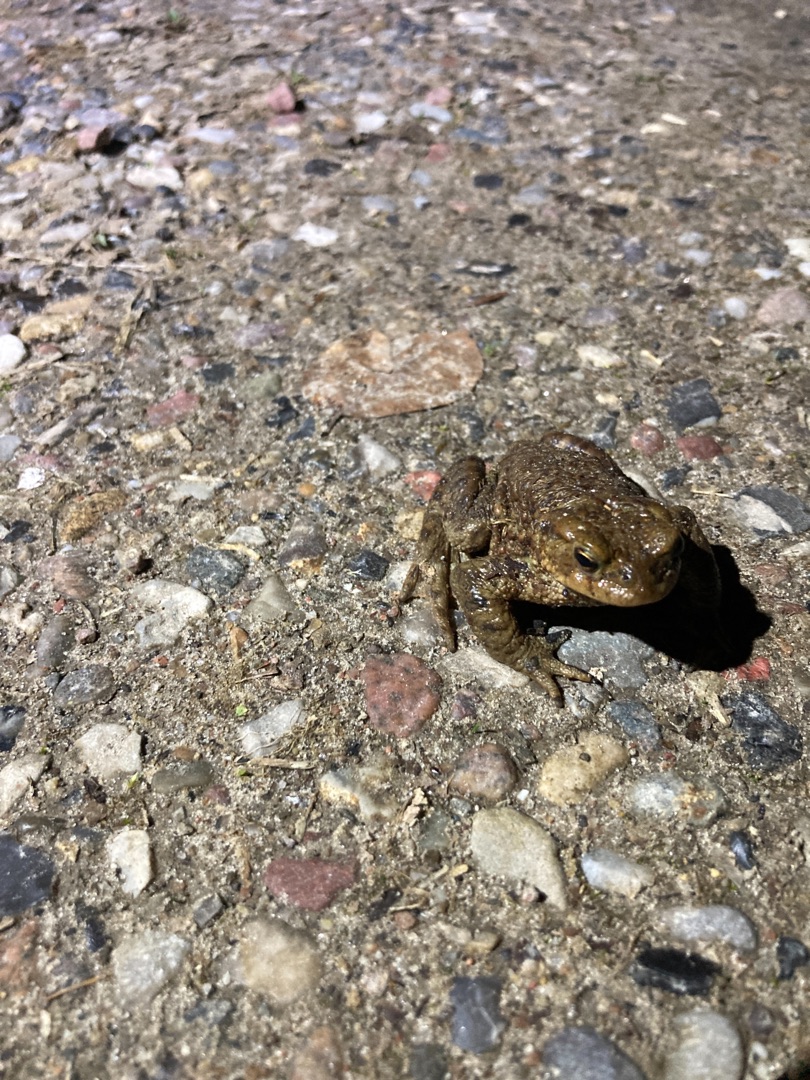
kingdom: Animalia
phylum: Chordata
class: Amphibia
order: Anura
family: Bufonidae
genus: Bufo
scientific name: Bufo bufo
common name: Skrubtudse
